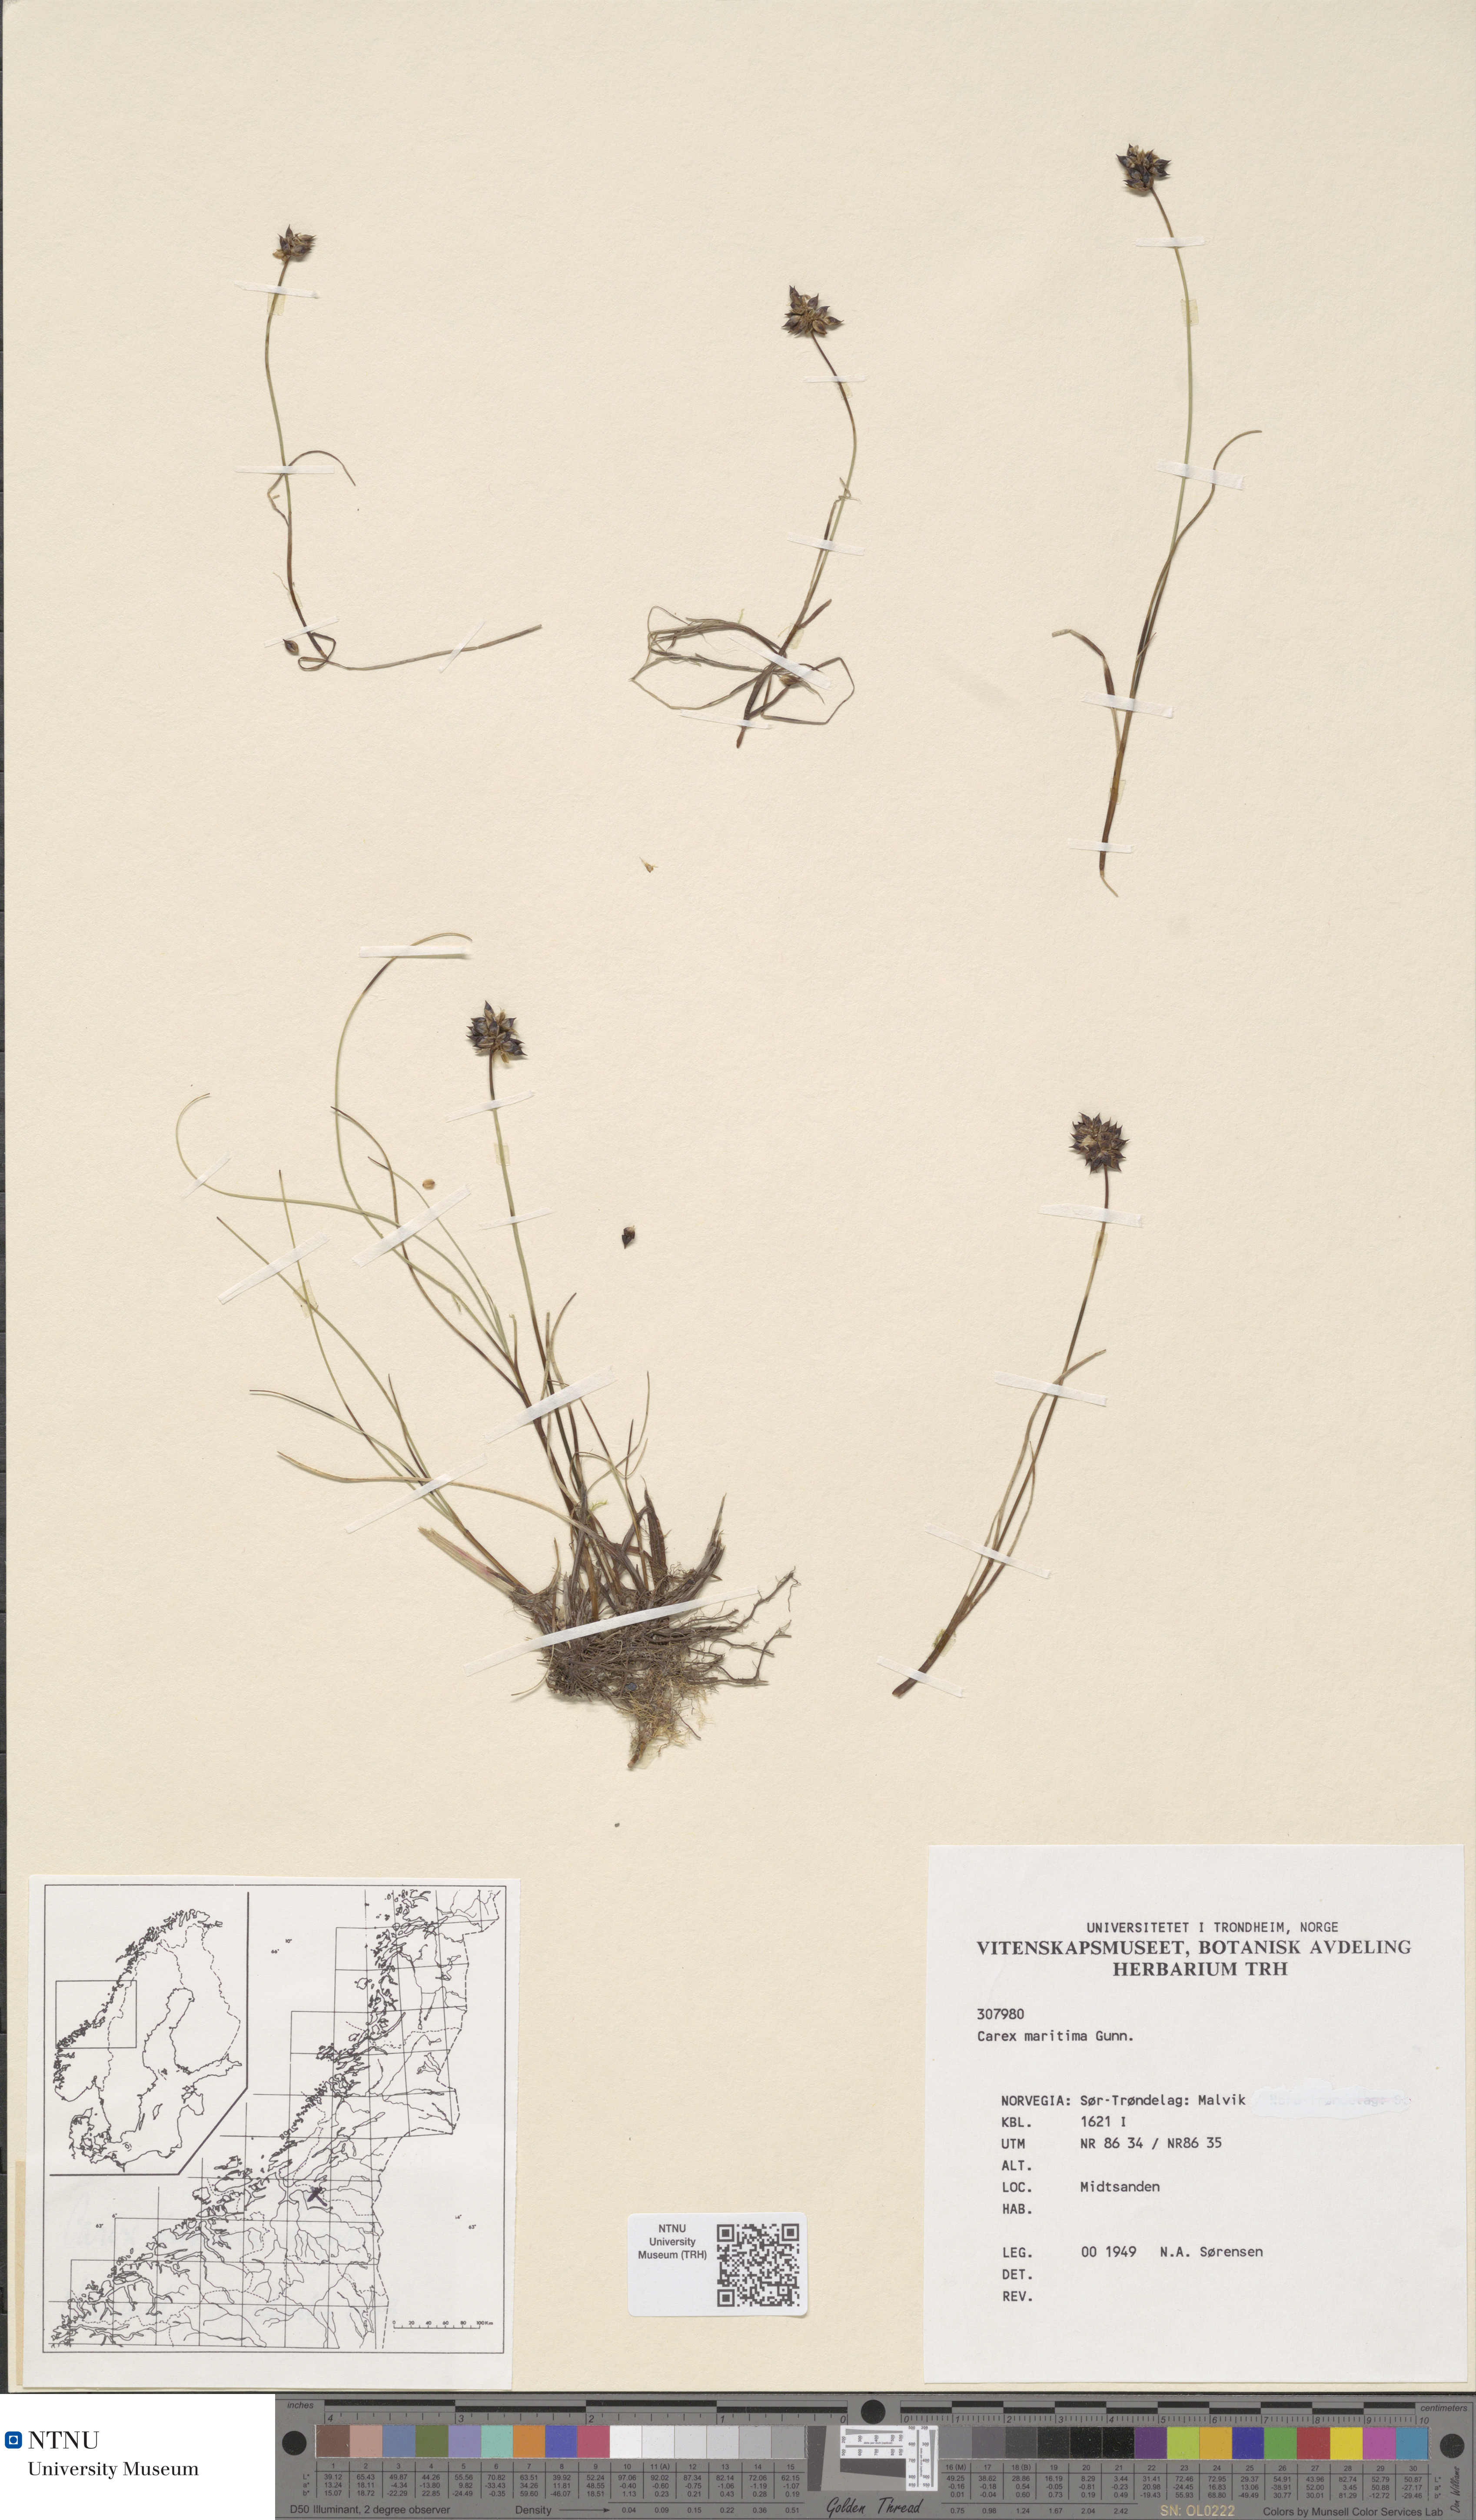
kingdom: Plantae
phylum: Tracheophyta
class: Liliopsida
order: Poales
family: Cyperaceae
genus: Carex
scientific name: Carex maritima
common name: Curved sedge
